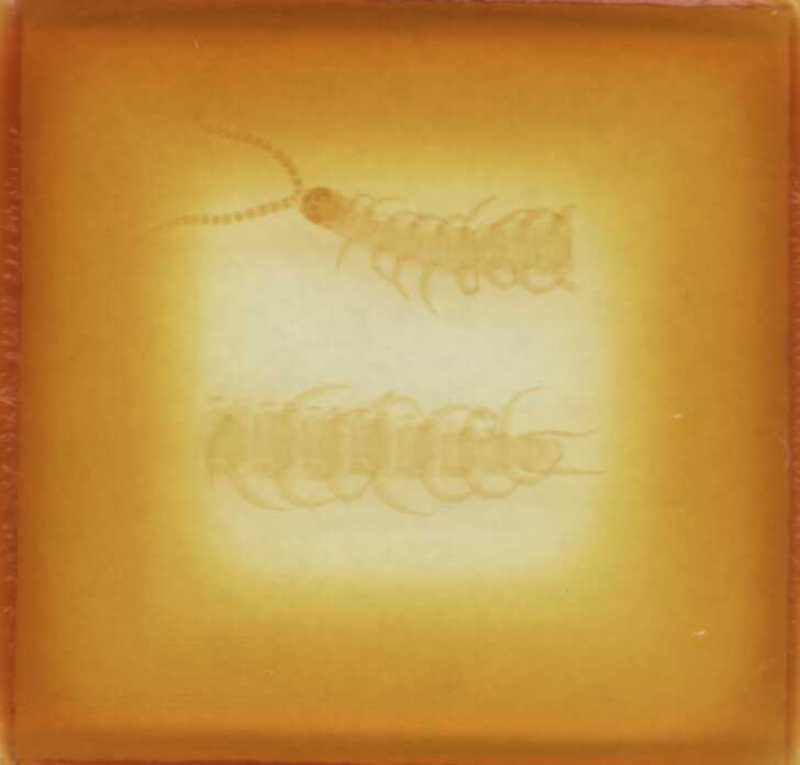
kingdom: Animalia
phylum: Arthropoda
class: Chilopoda
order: Geophilomorpha
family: Linotaeniidae
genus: Strigamia
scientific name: Strigamia acuminata
